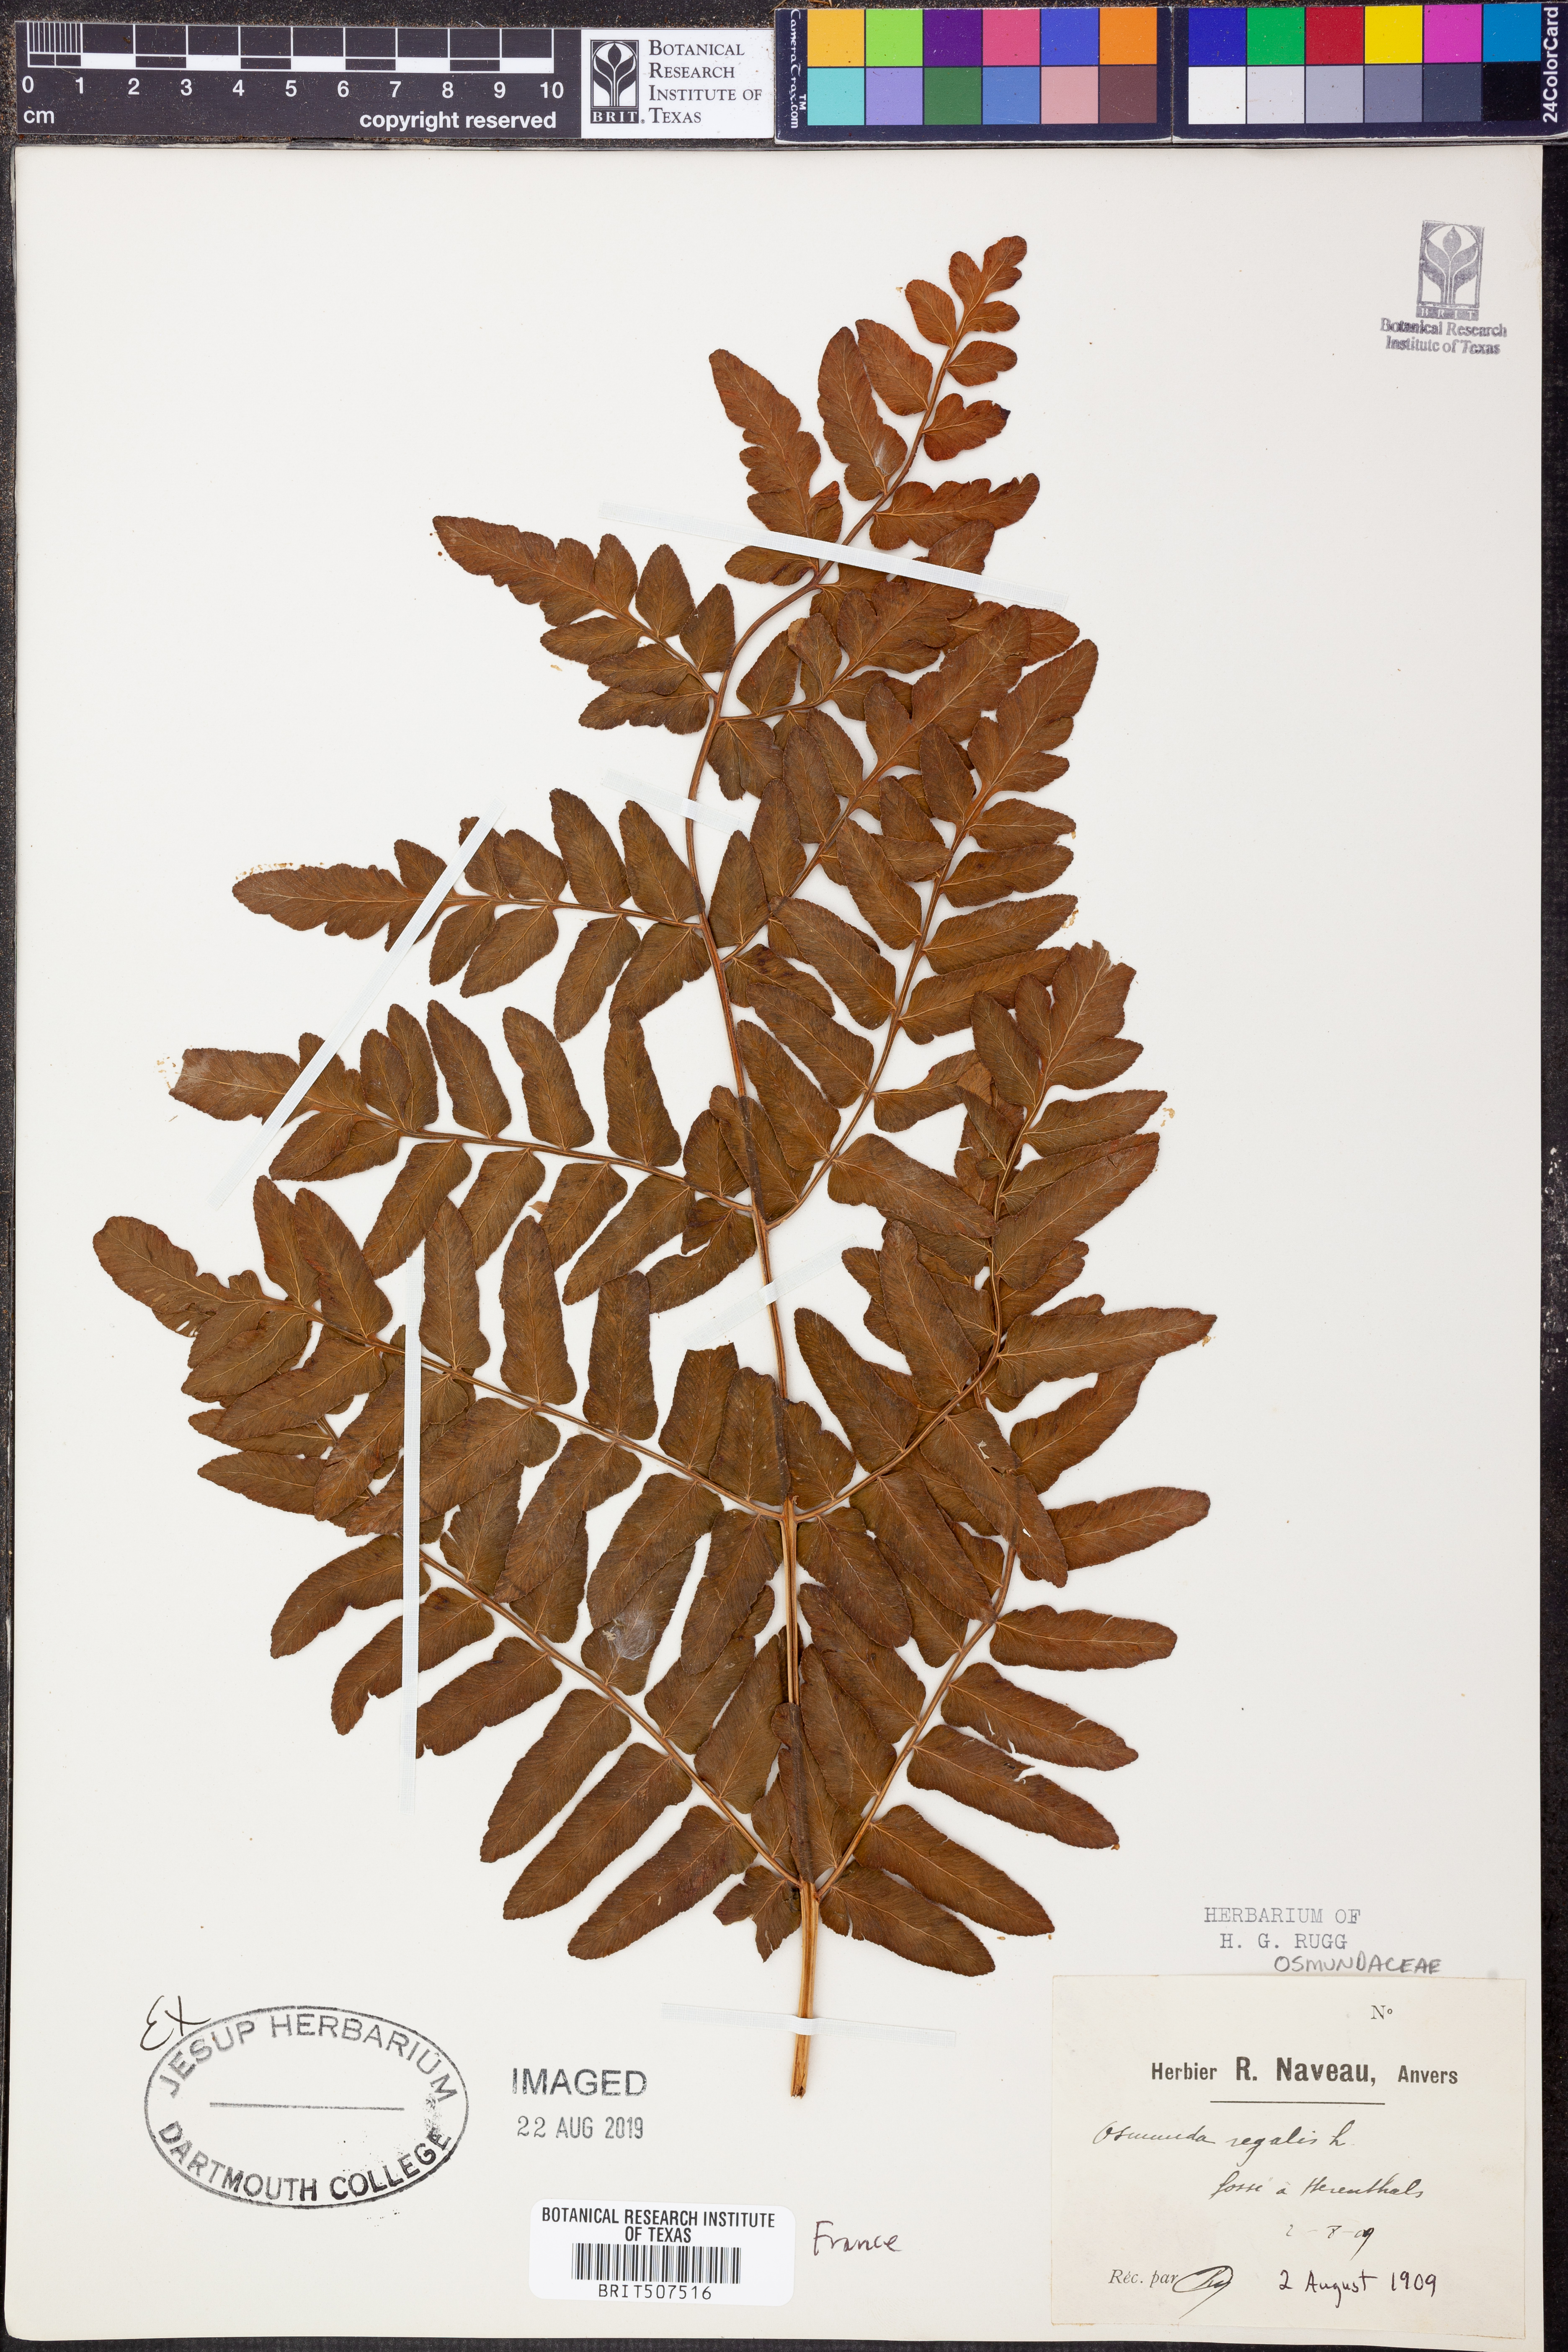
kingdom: Plantae
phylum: Tracheophyta
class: Polypodiopsida
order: Osmundales
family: Osmundaceae
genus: Osmunda
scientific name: Osmunda regalis
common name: Royal fern
